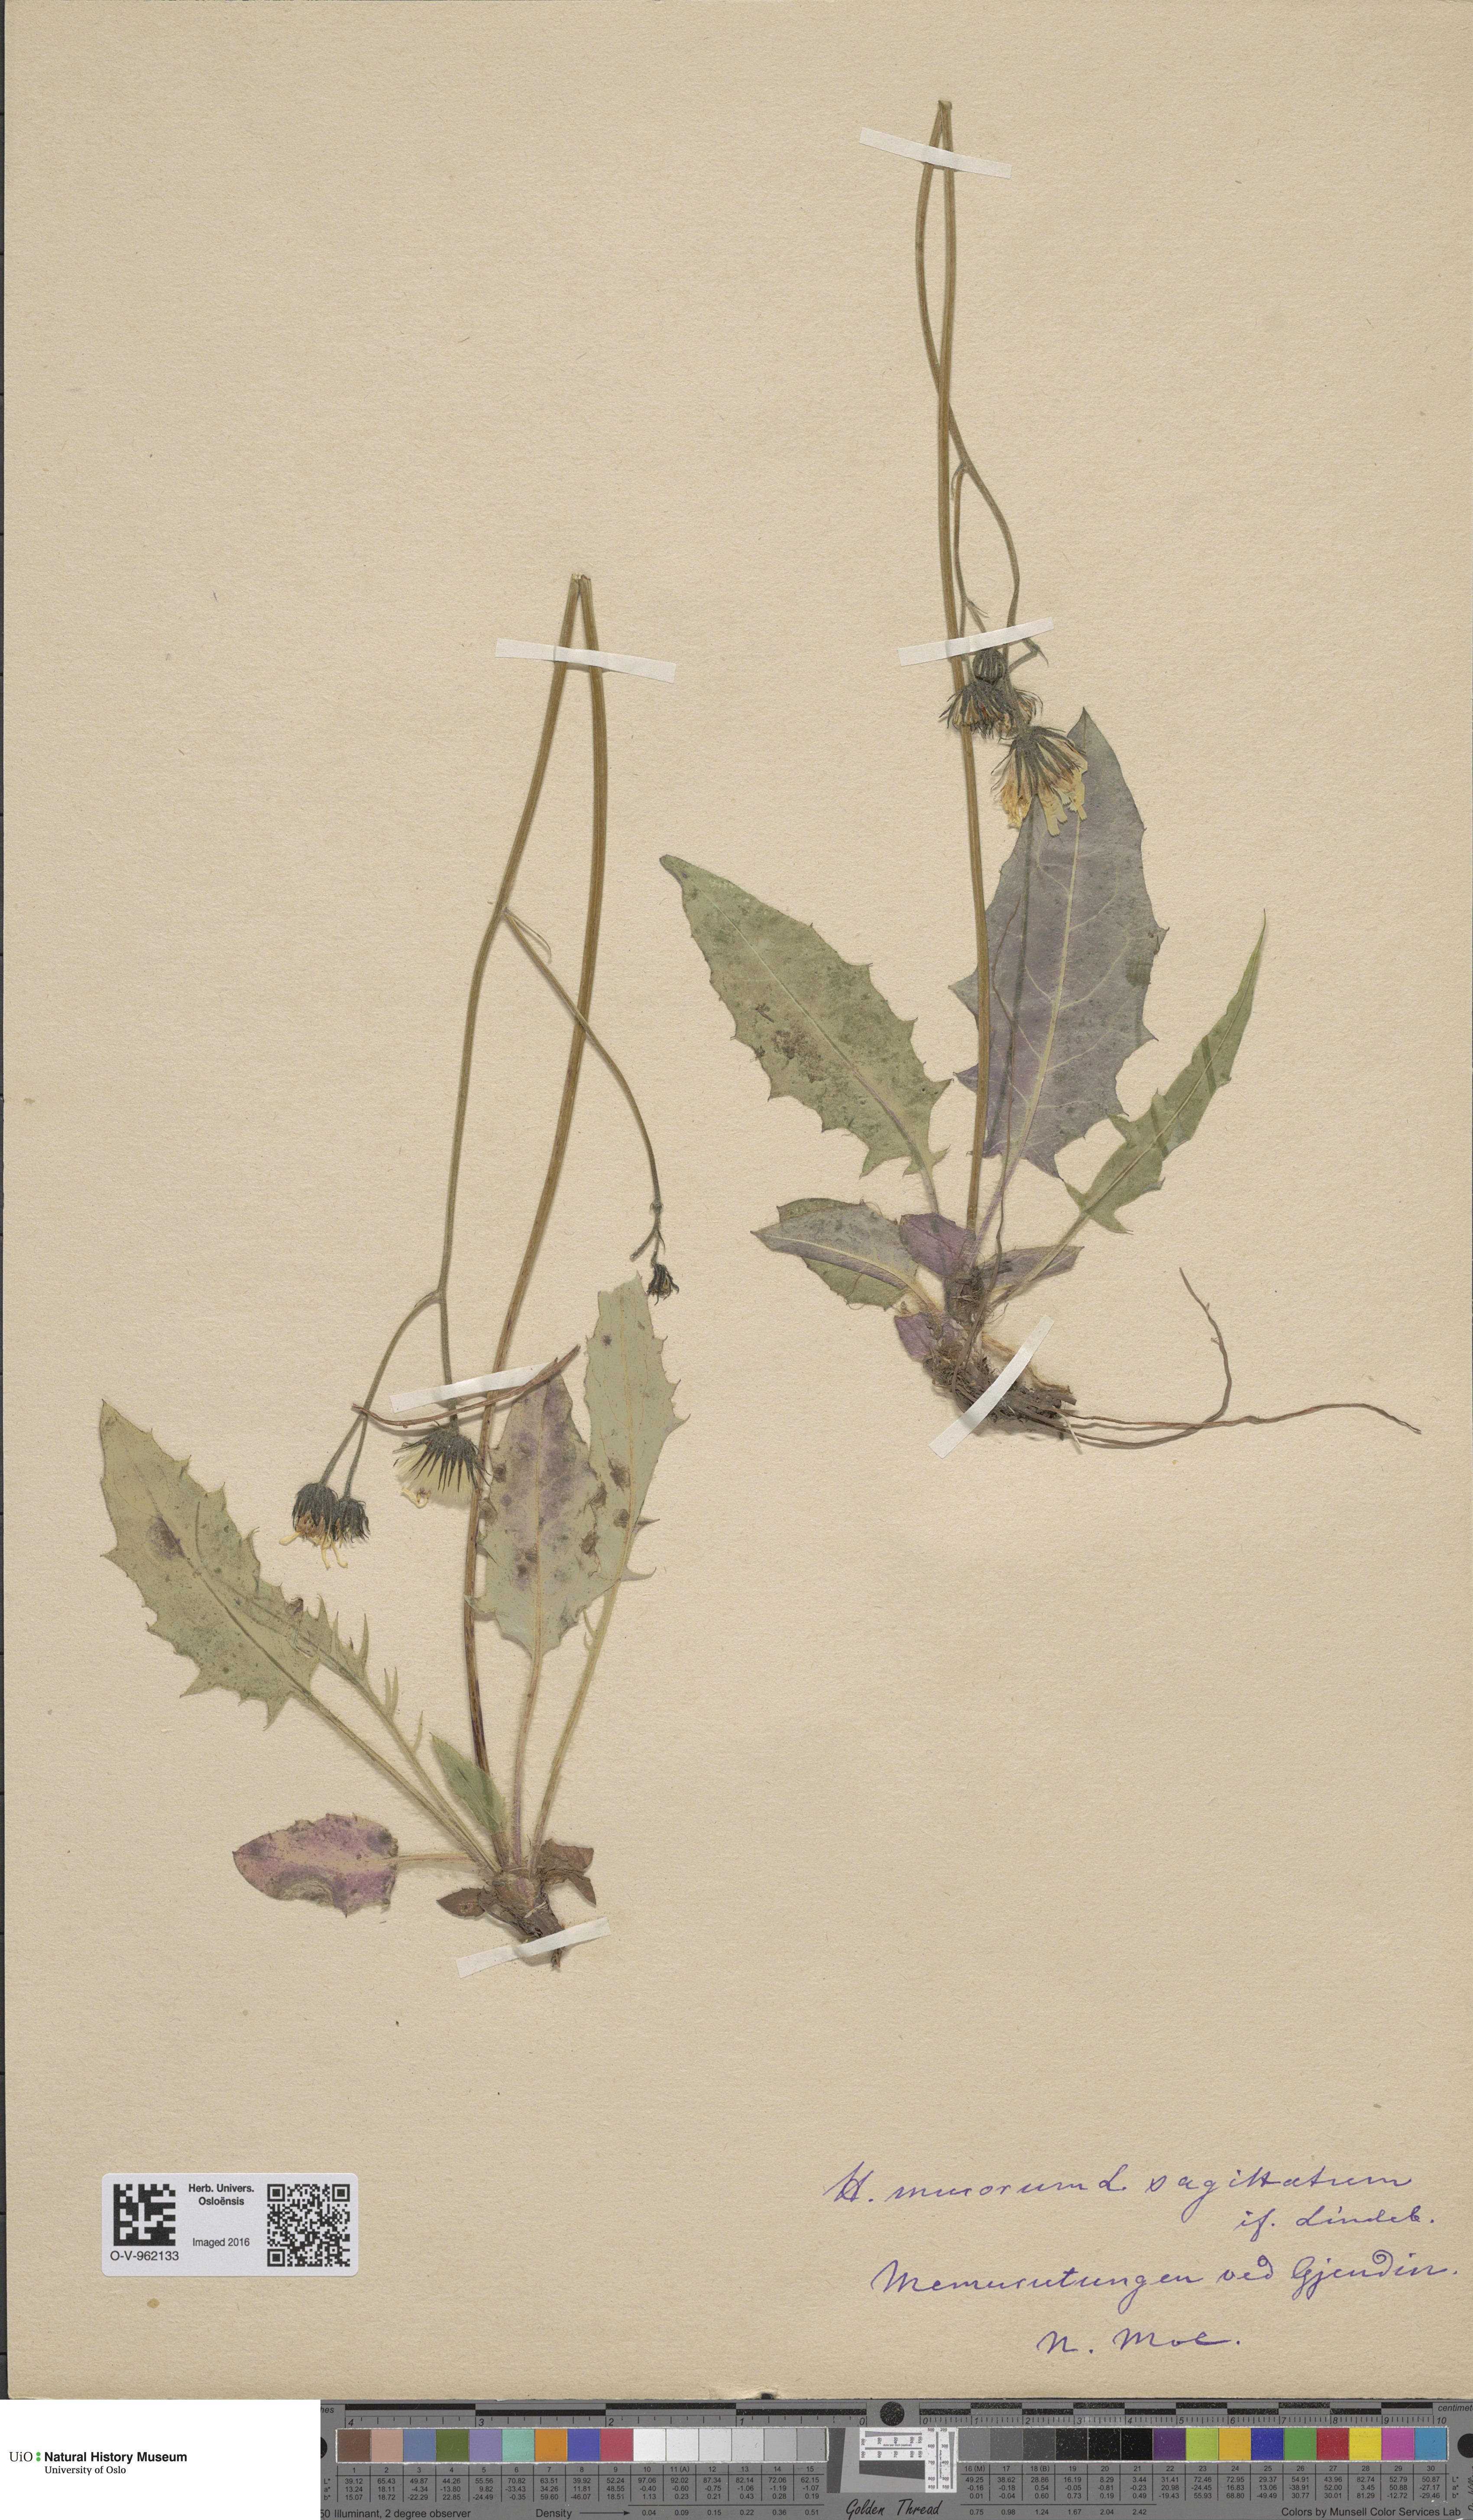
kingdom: Plantae
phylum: Tracheophyta
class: Magnoliopsida
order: Asterales
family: Asteraceae
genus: Hieracium
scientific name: Hieracium murorum
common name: Wall hawkweed
